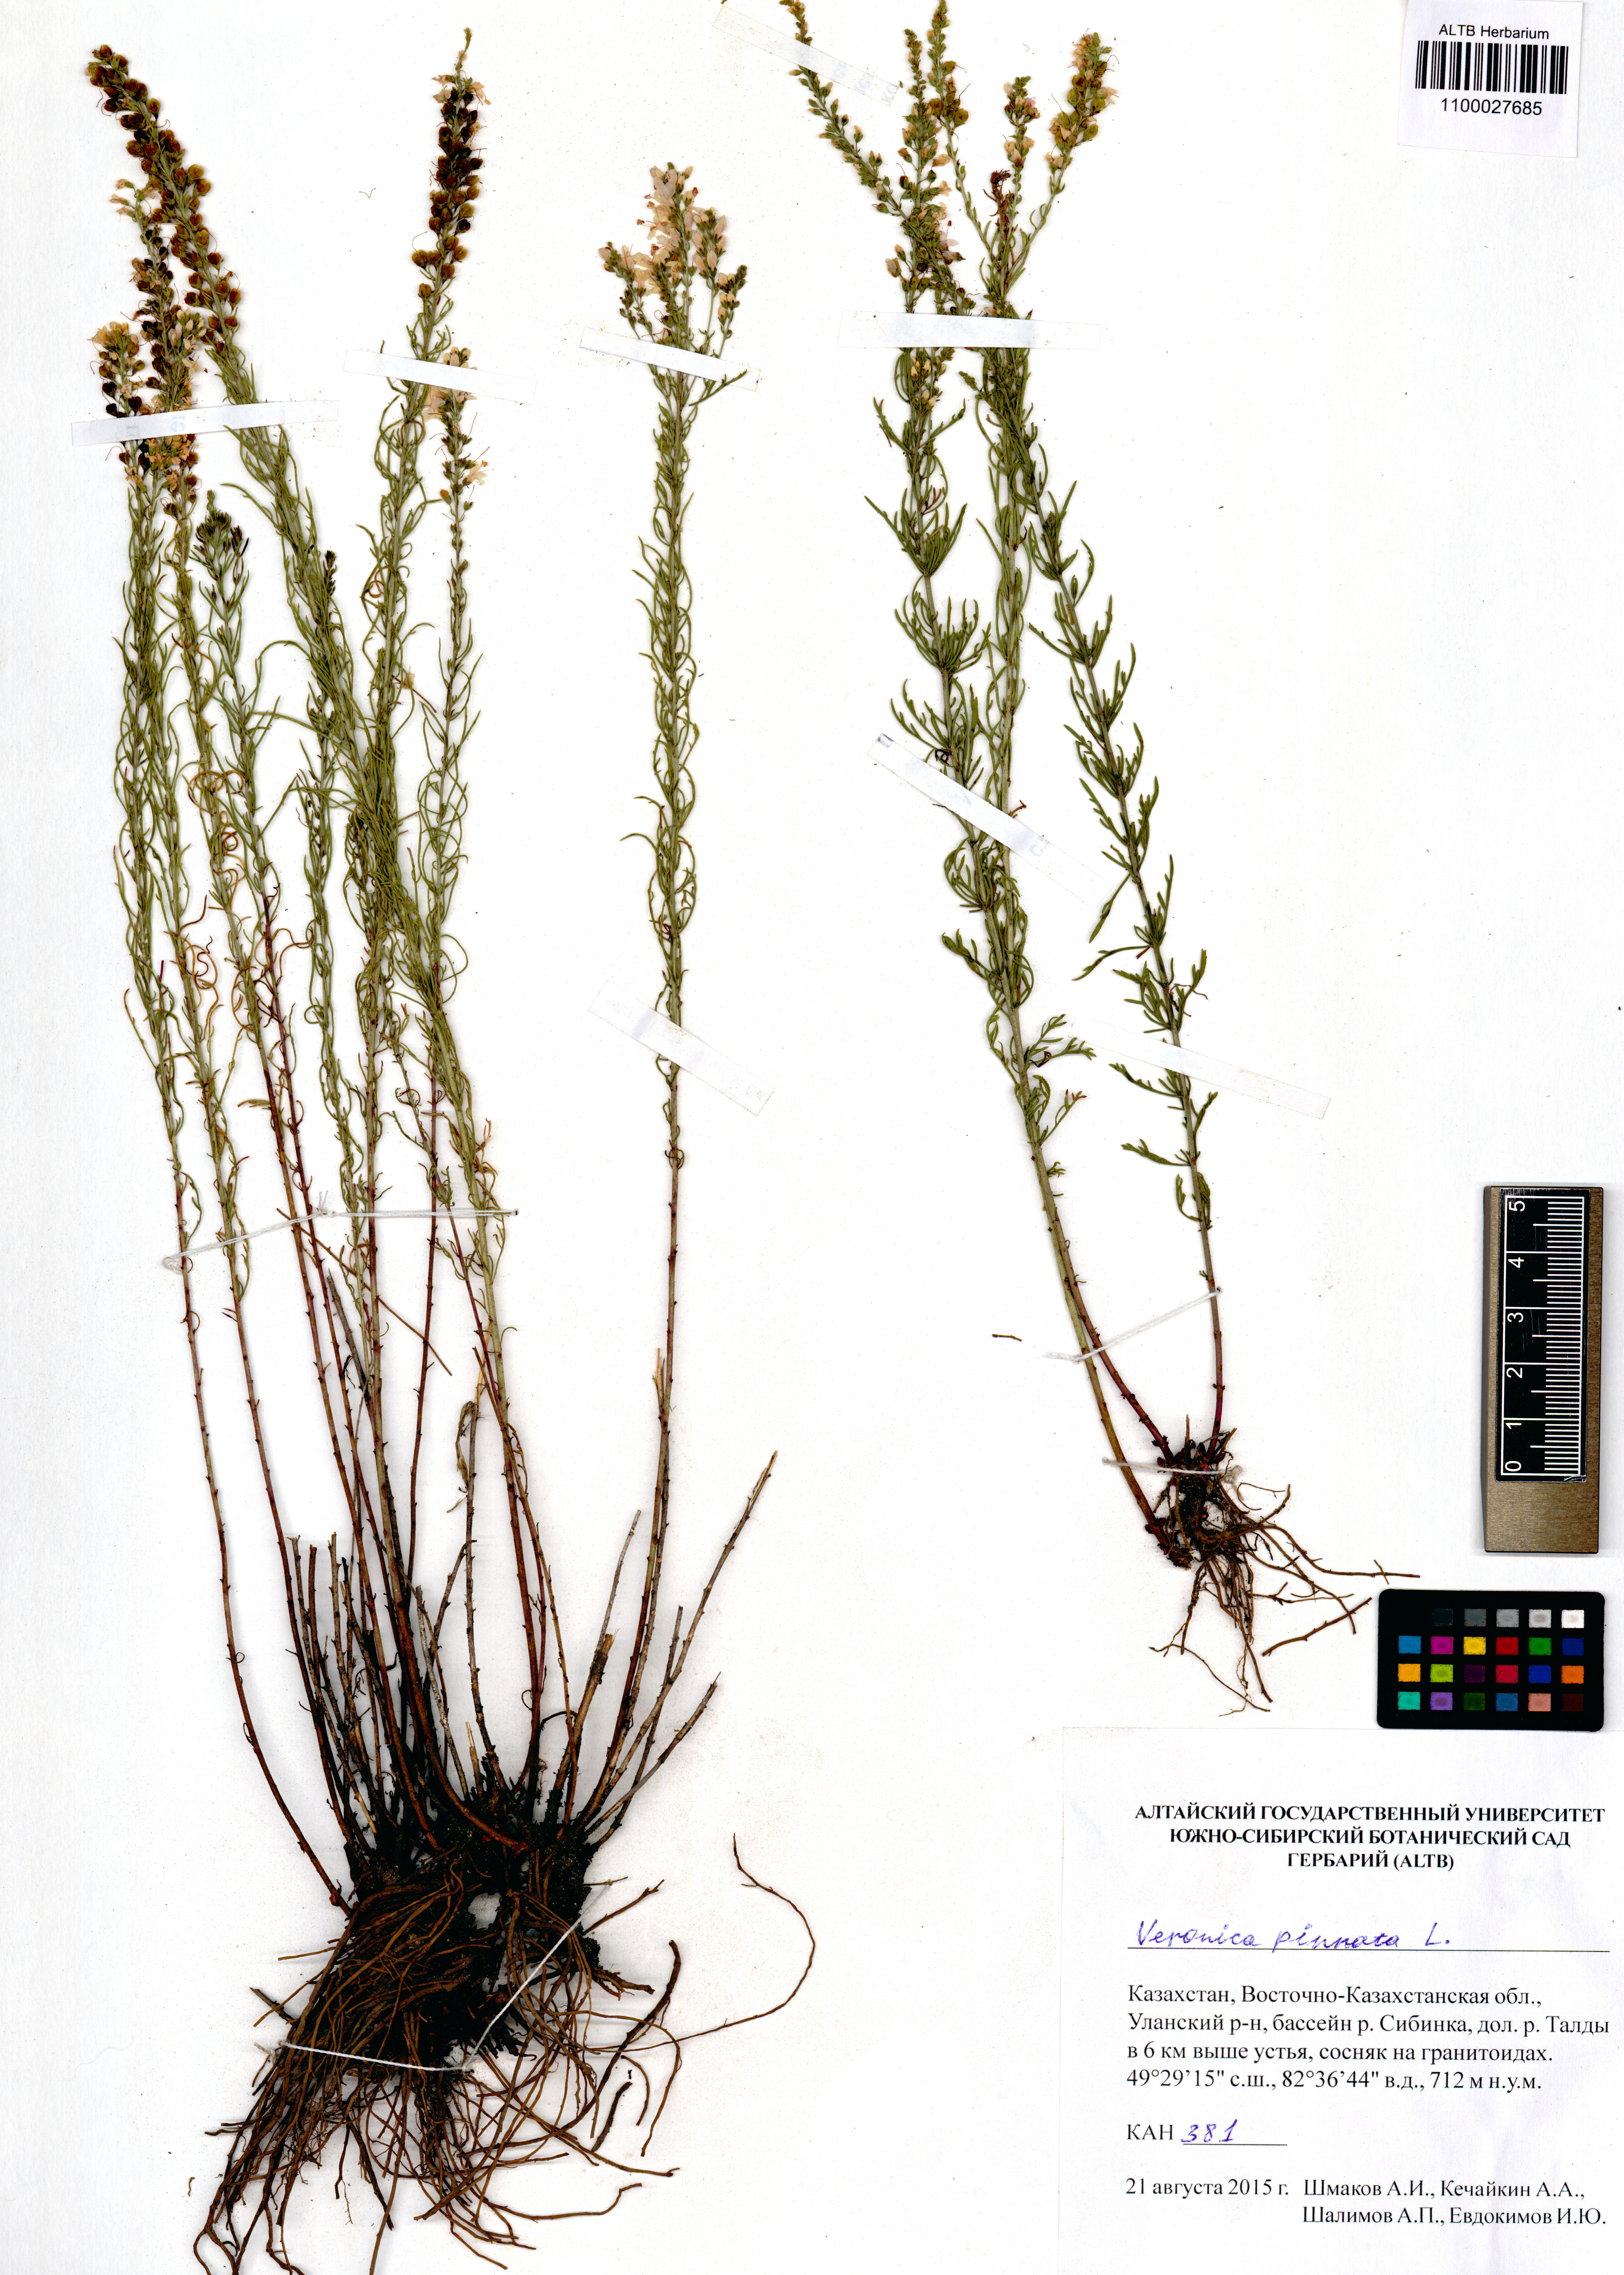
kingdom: Plantae
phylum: Tracheophyta
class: Magnoliopsida
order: Lamiales
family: Plantaginaceae
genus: Veronica
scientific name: Veronica pinnata
